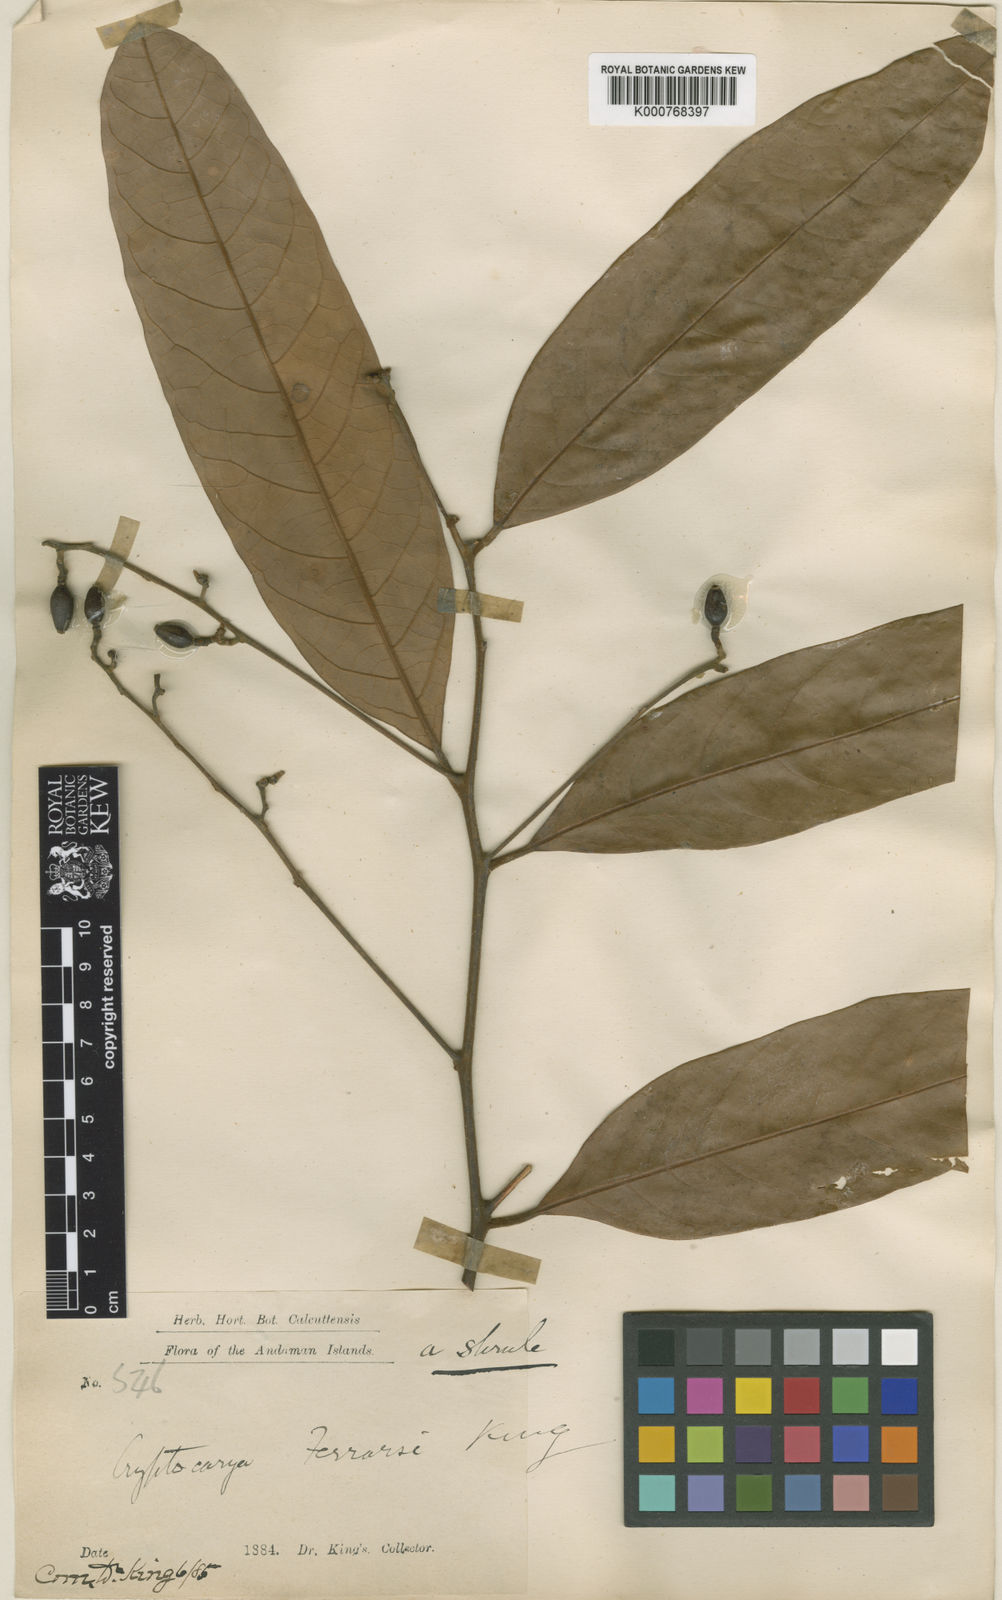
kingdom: Plantae
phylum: Tracheophyta
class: Magnoliopsida
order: Laurales
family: Lauraceae
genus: Cryptocarya
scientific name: Cryptocarya ferrarsi
